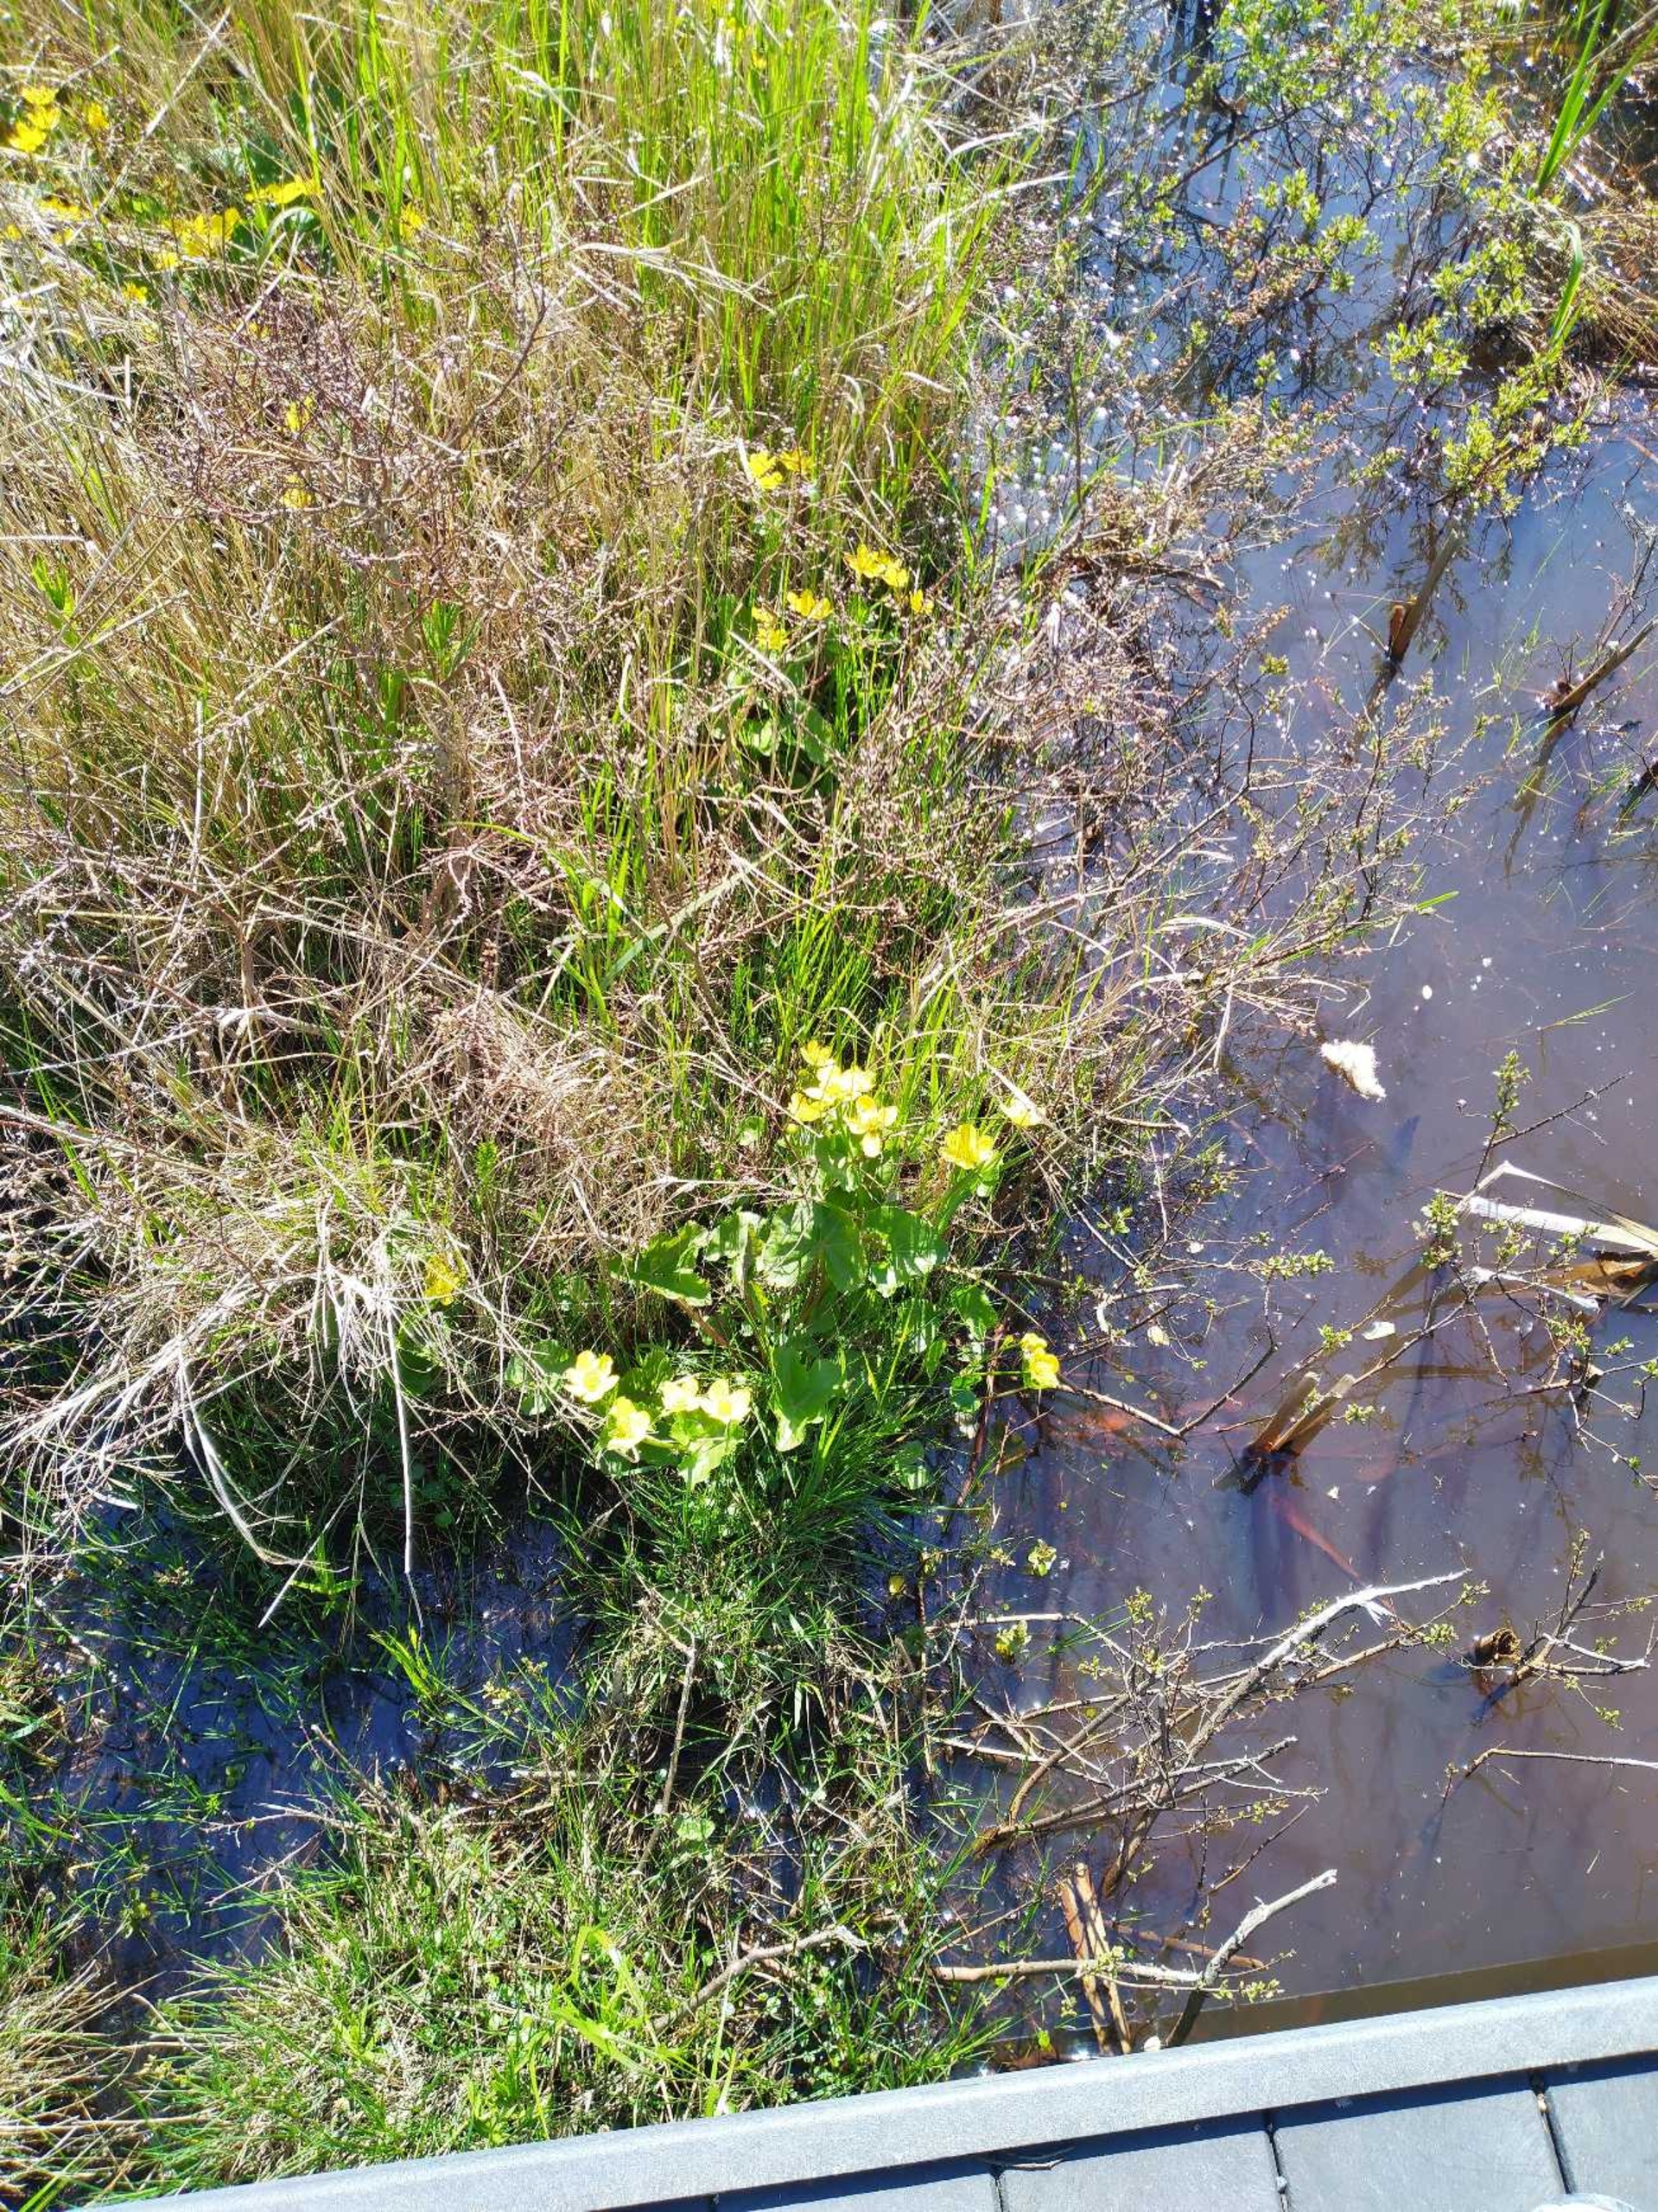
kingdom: Plantae
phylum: Tracheophyta
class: Magnoliopsida
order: Ranunculales
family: Ranunculaceae
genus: Caltha
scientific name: Caltha palustris
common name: Eng-kabbeleje
